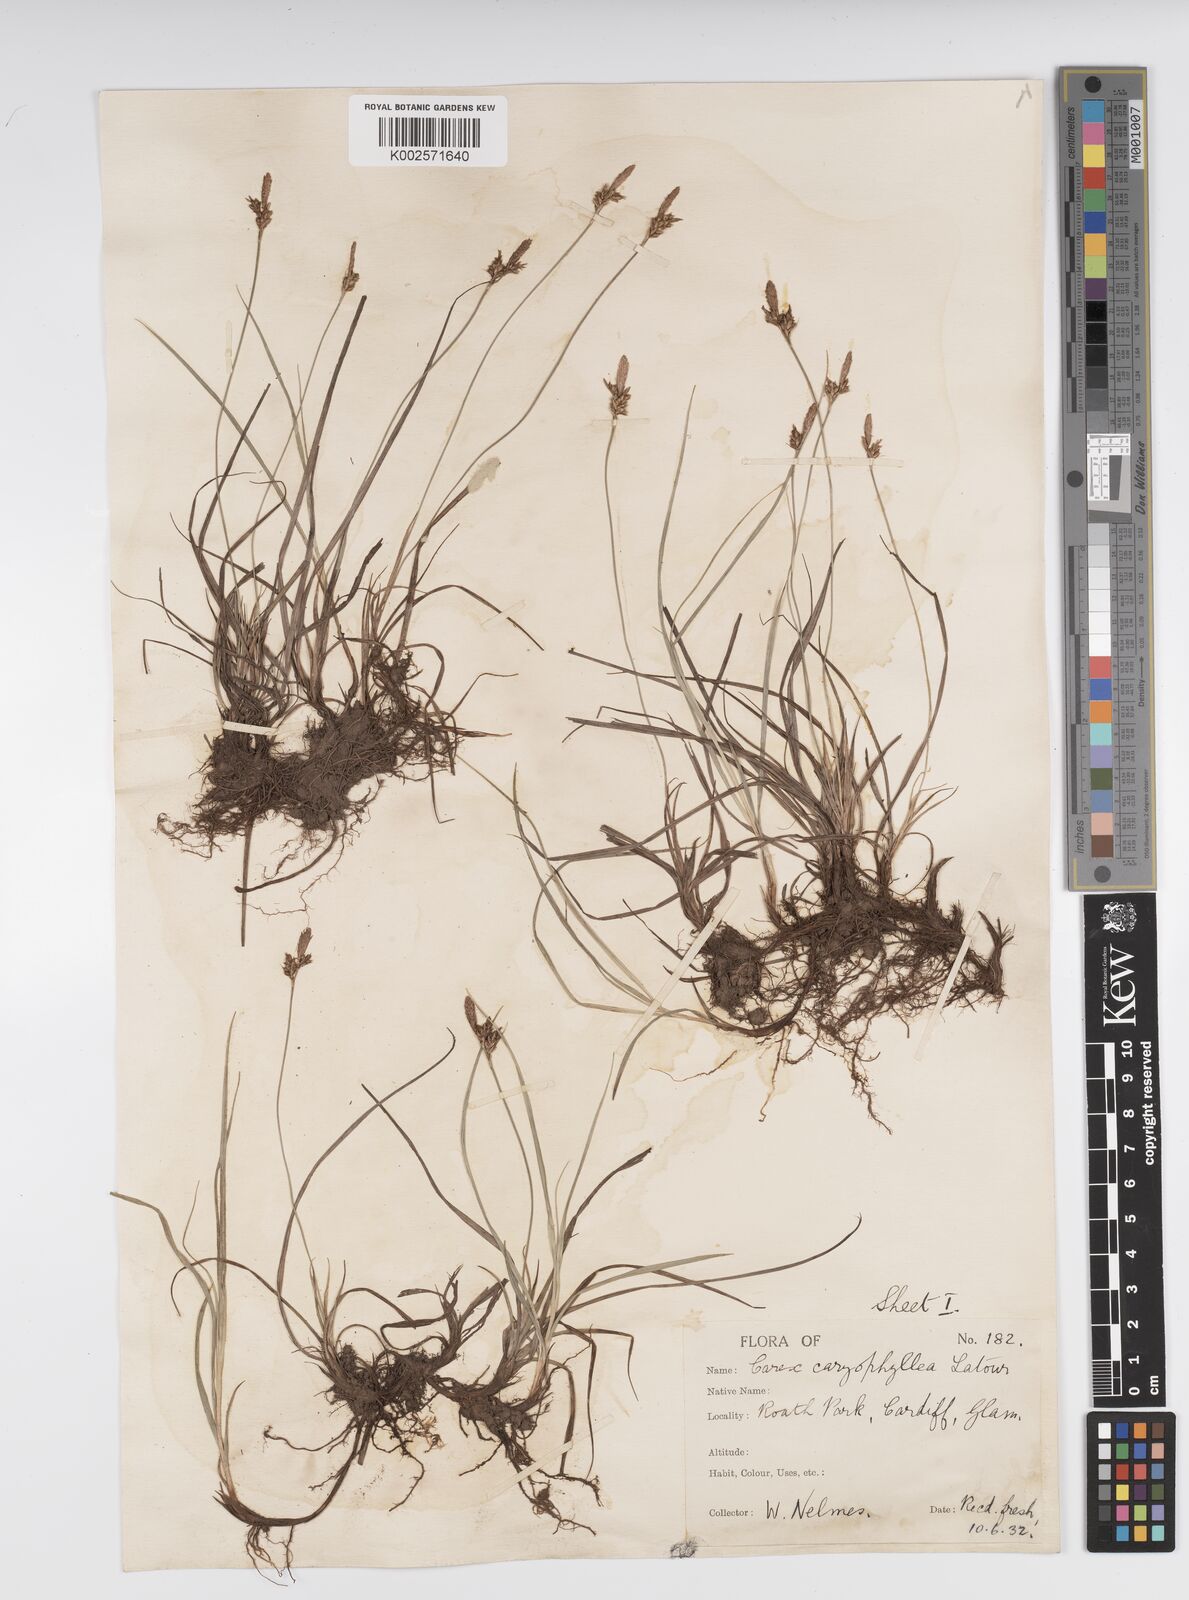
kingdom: Plantae
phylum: Tracheophyta
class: Liliopsida
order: Poales
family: Cyperaceae
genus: Carex
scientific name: Carex caryophyllea
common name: Spring sedge
